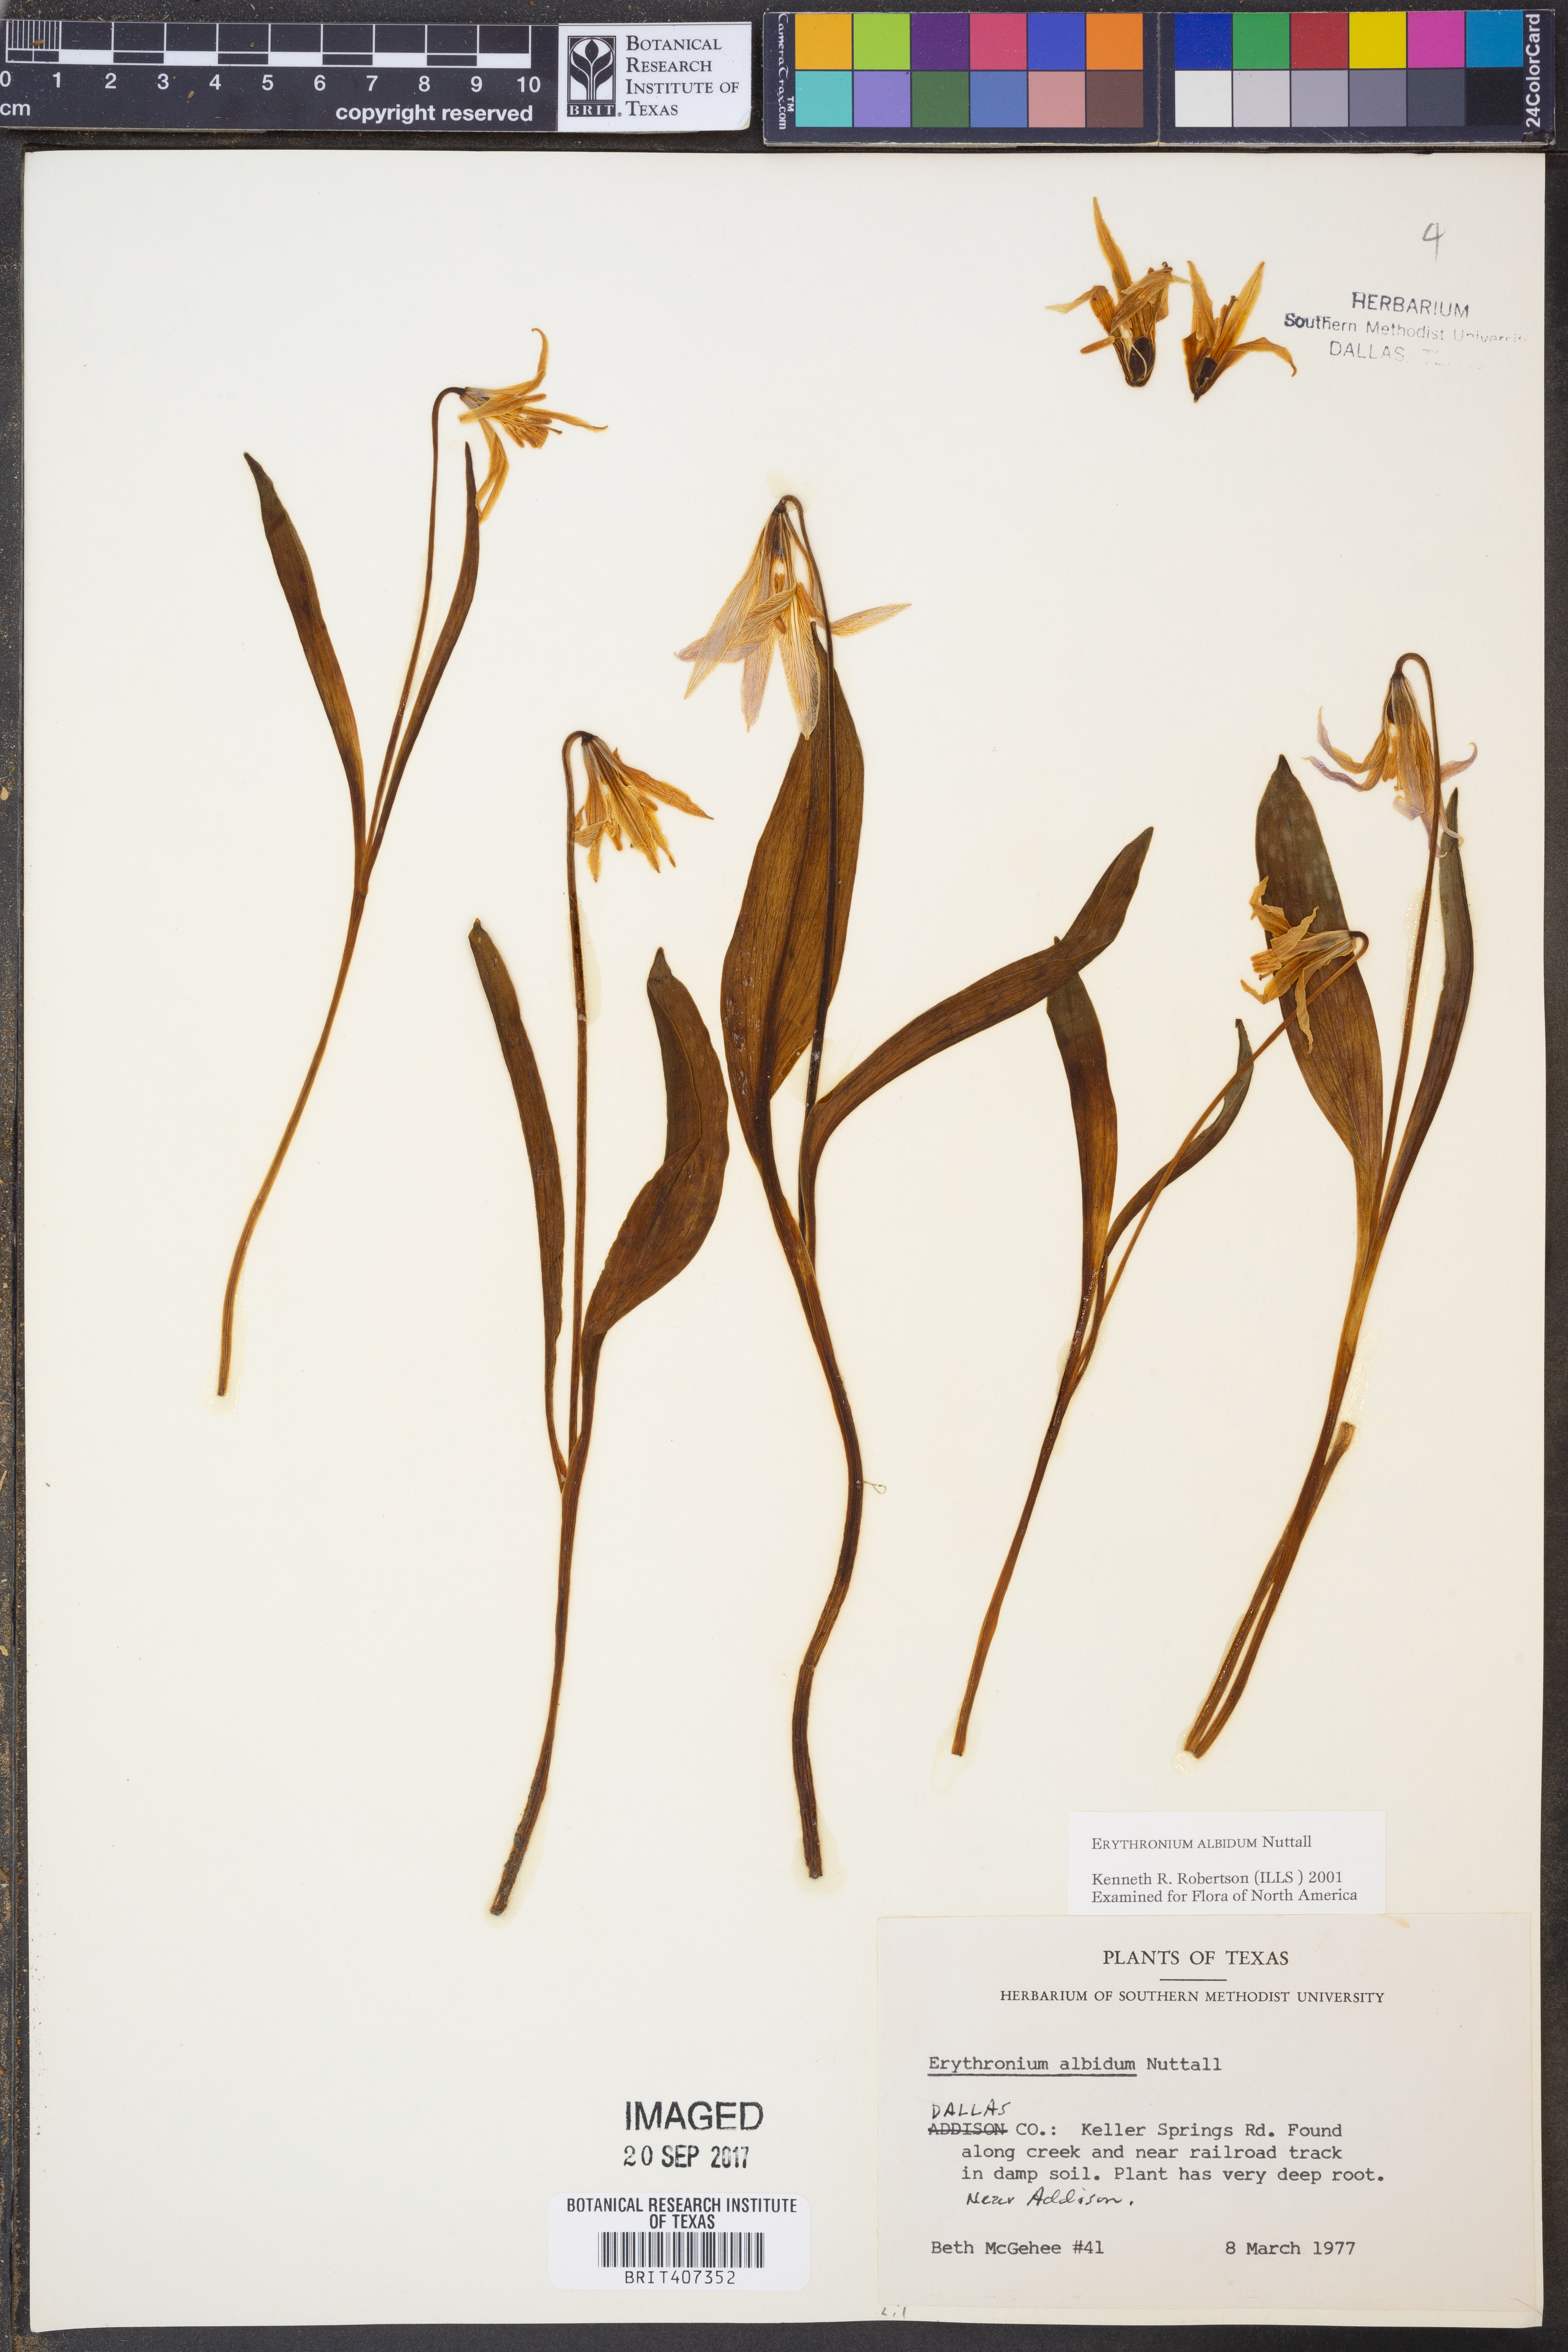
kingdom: Plantae
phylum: Tracheophyta
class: Liliopsida
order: Liliales
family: Liliaceae
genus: Erythronium
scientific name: Erythronium albidum
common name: White trout-lily
